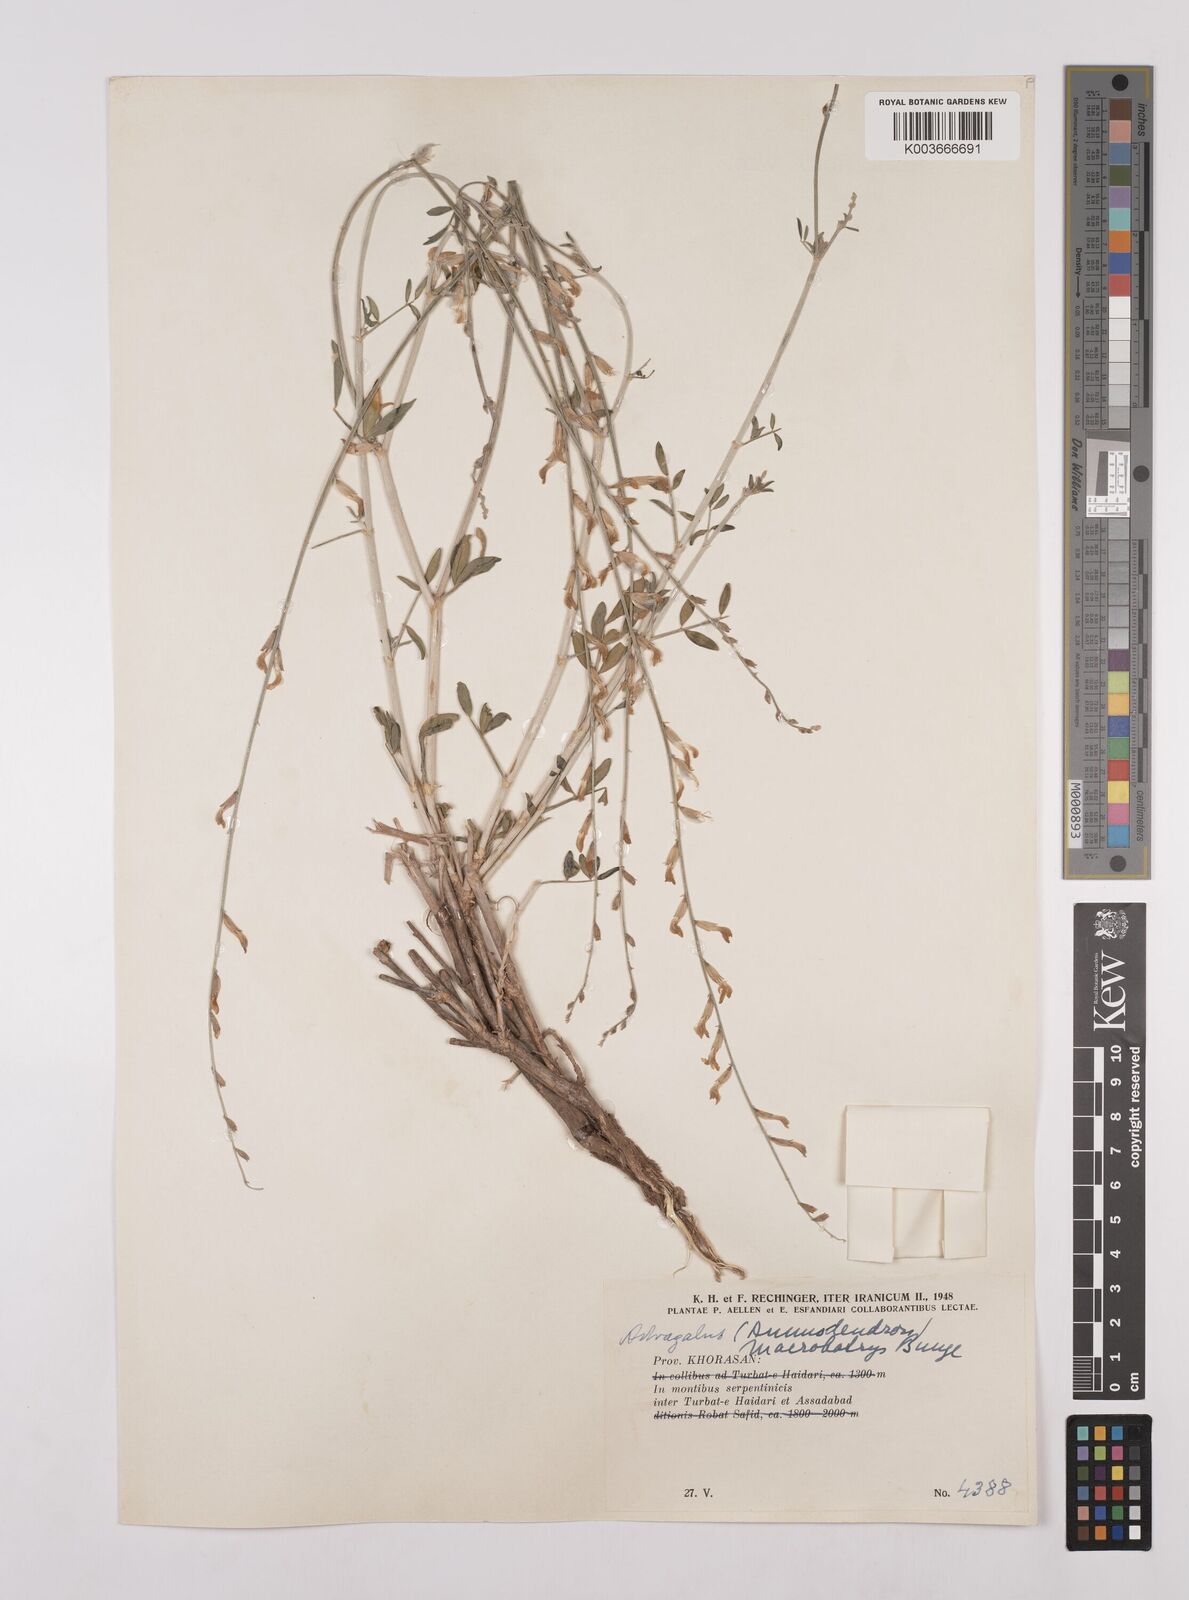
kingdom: Plantae
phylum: Tracheophyta
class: Magnoliopsida
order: Fabales
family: Fabaceae
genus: Astragalus
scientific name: Astragalus macrobotrys
